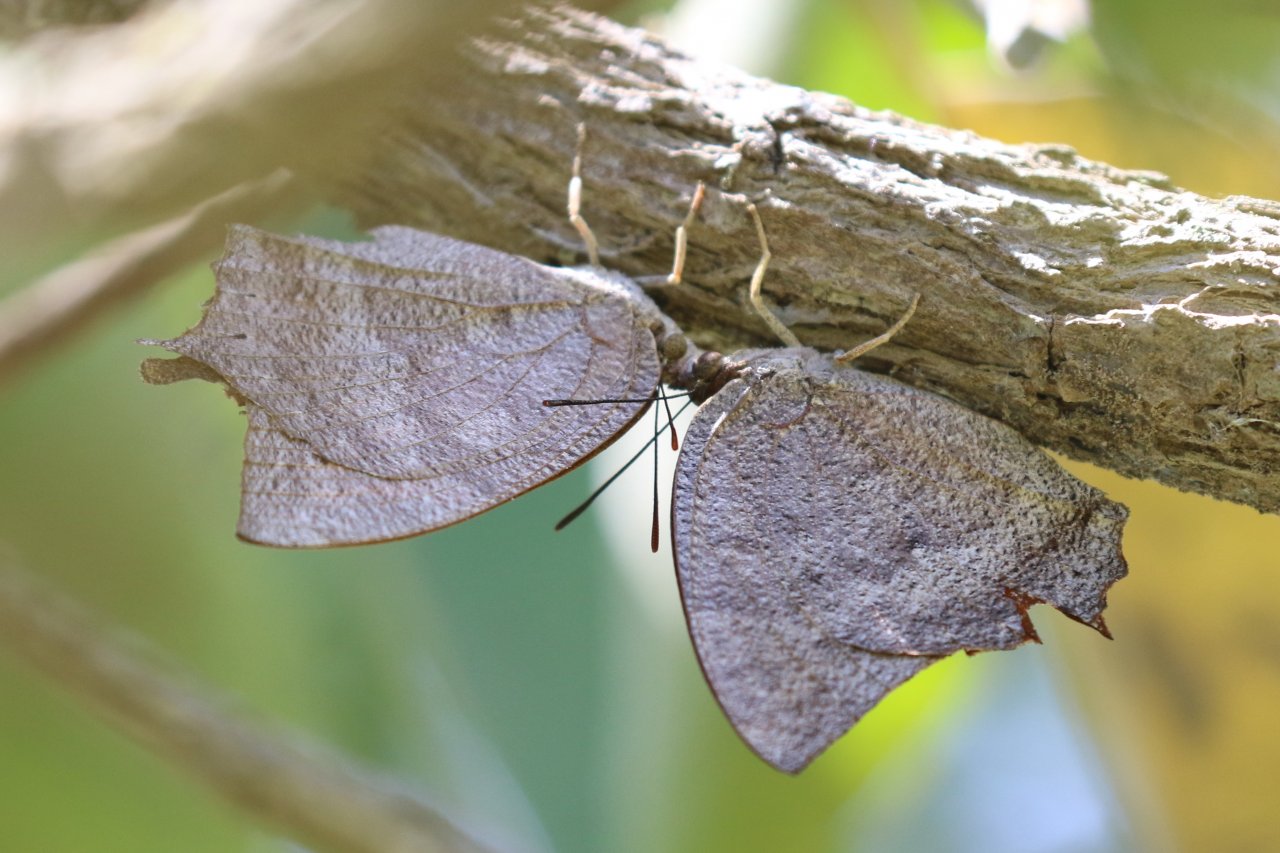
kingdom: Animalia
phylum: Arthropoda
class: Insecta
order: Lepidoptera
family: Nymphalidae
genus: Anaea
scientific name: Anaea aidea
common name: Tropical Leafwing
